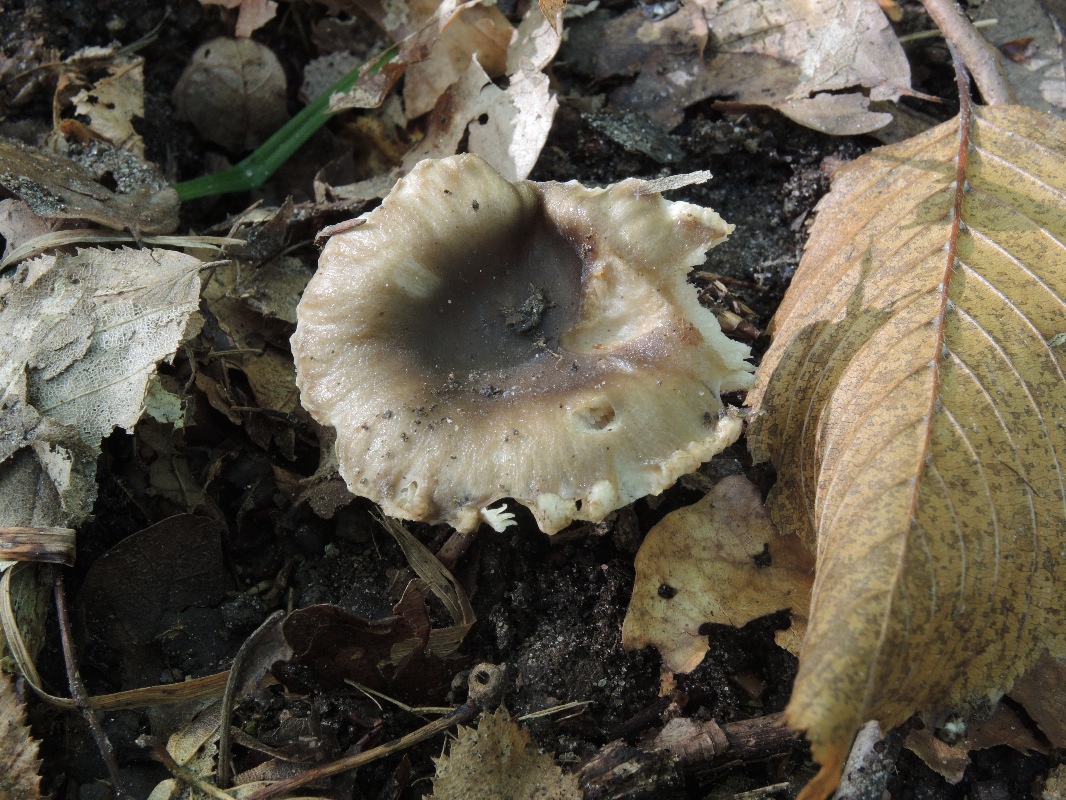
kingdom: Fungi
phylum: Basidiomycota
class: Agaricomycetes
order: Russulales
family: Russulaceae
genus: Russula
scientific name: Russula sororia
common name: brun kam-skørhat
